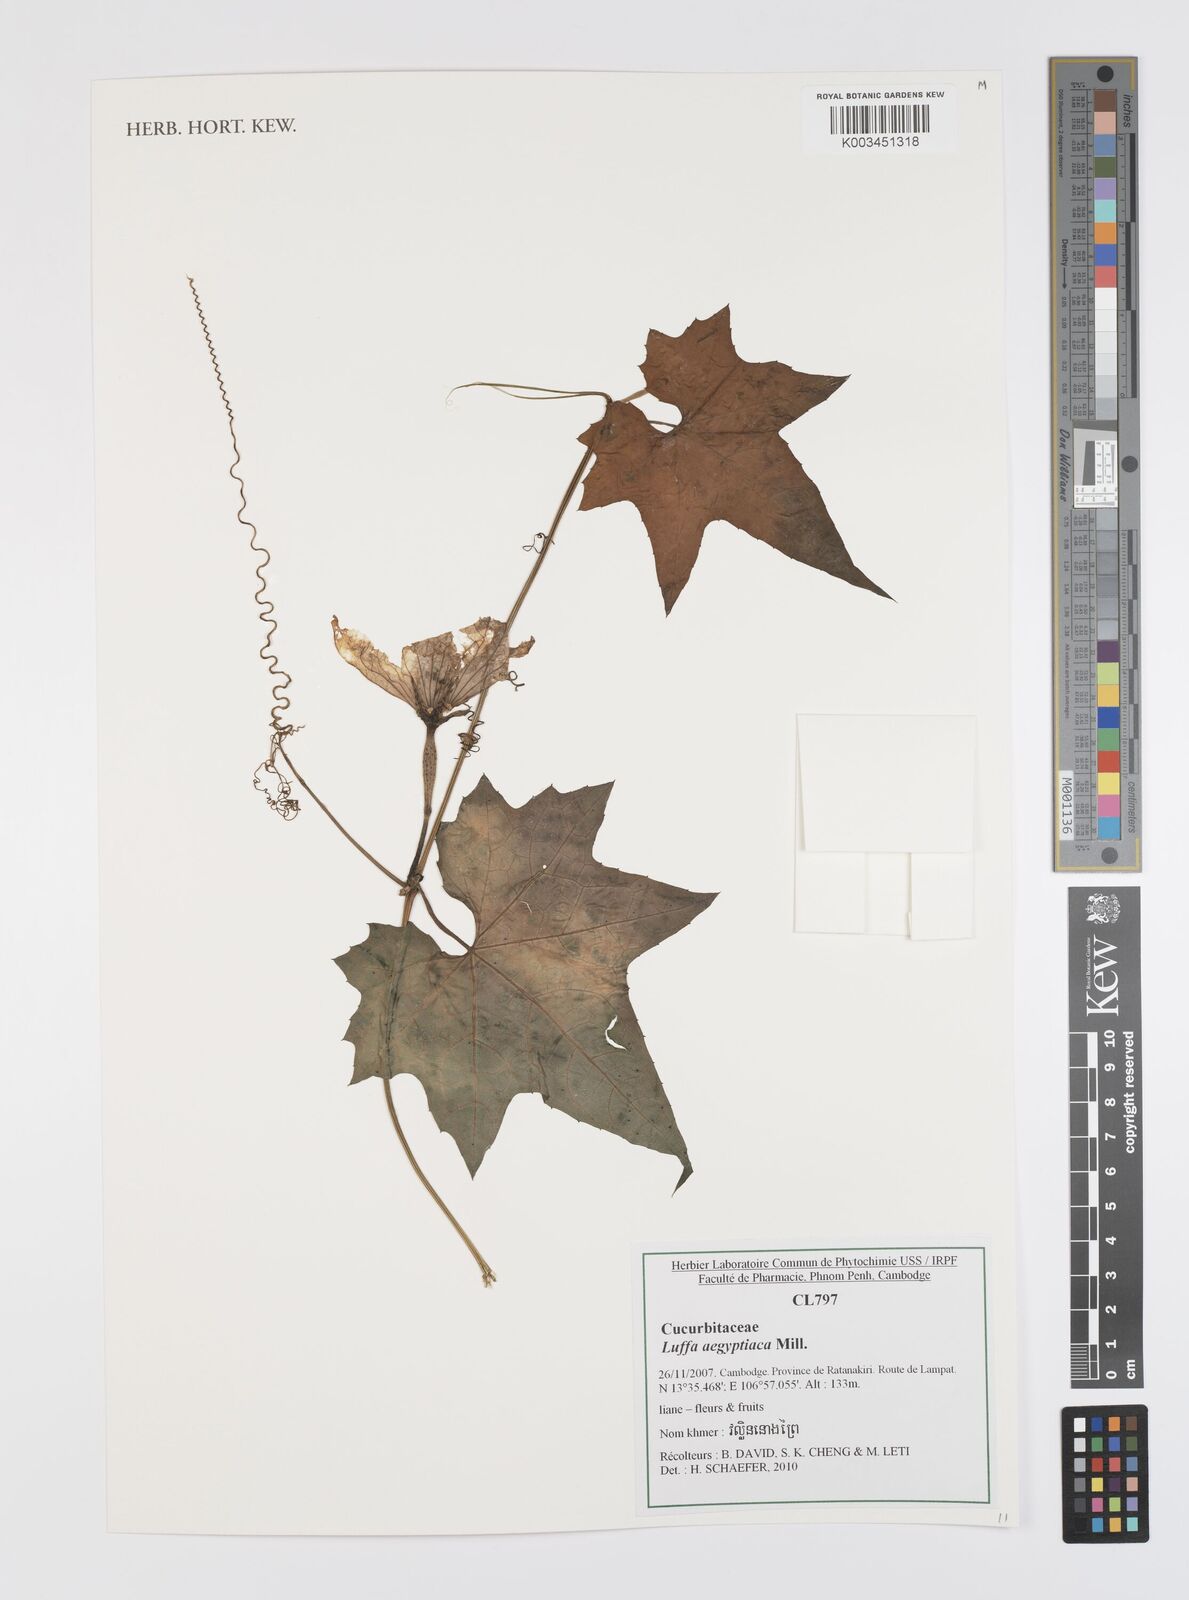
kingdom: Plantae
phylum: Tracheophyta
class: Magnoliopsida
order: Cucurbitales
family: Cucurbitaceae
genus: Luffa
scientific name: Luffa aegyptiaca
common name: Sponge gourd
